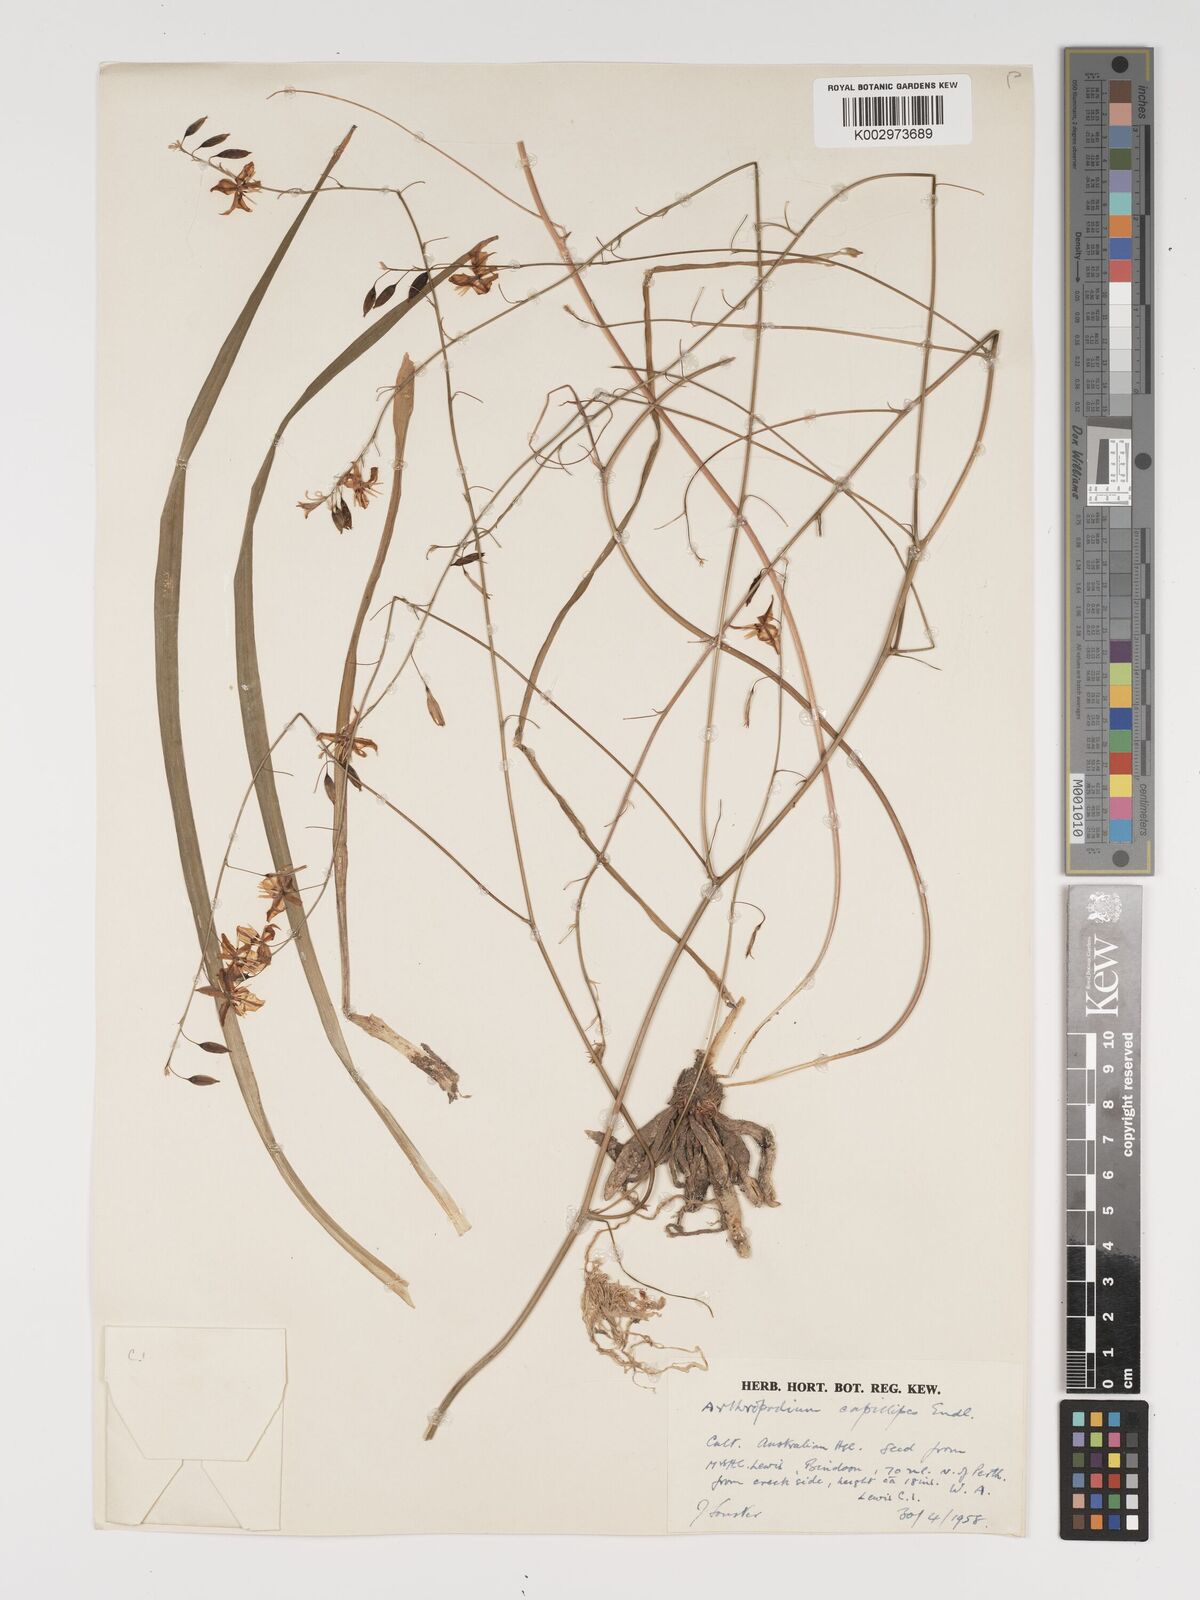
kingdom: Plantae
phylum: Tracheophyta
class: Liliopsida
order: Asparagales
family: Asparagaceae
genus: Dichopogon
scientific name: Dichopogon preissii
